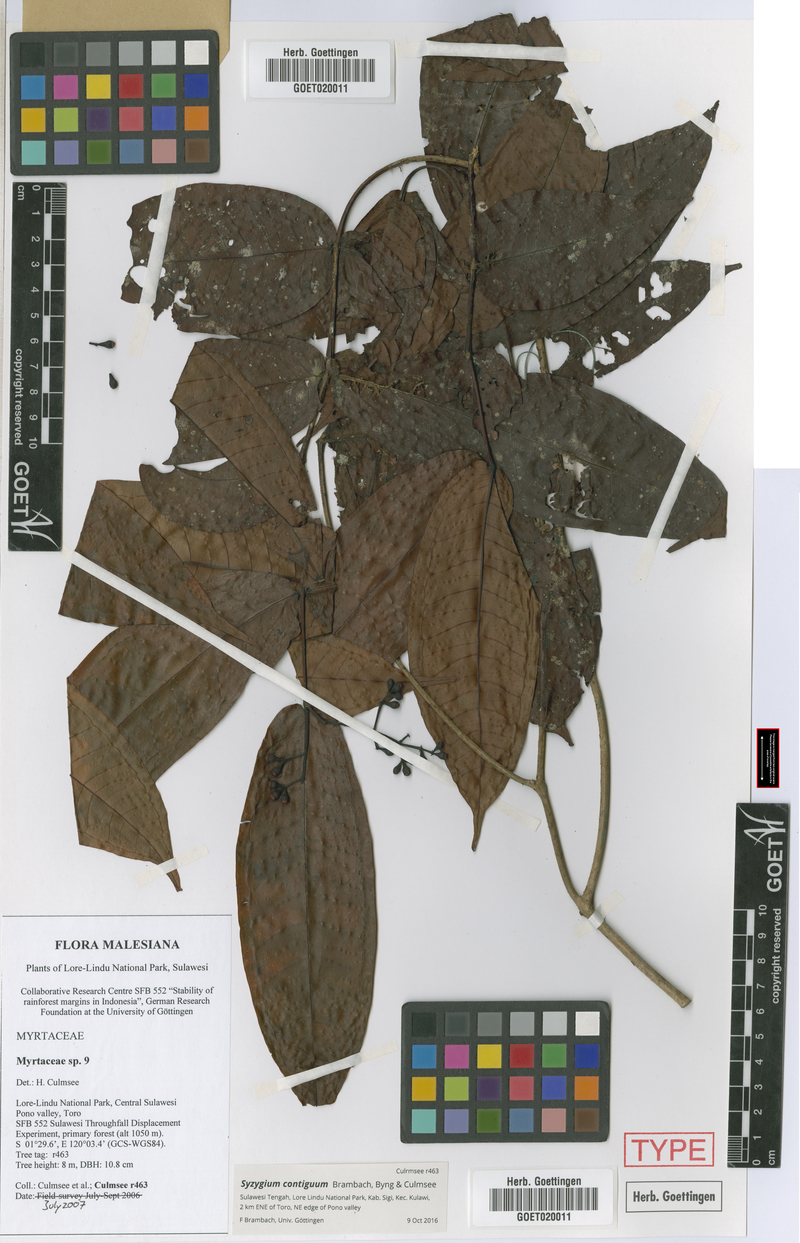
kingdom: Plantae
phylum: Tracheophyta
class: Magnoliopsida
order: Myrtales
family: Myrtaceae
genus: Syzygium
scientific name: Syzygium contiguum
